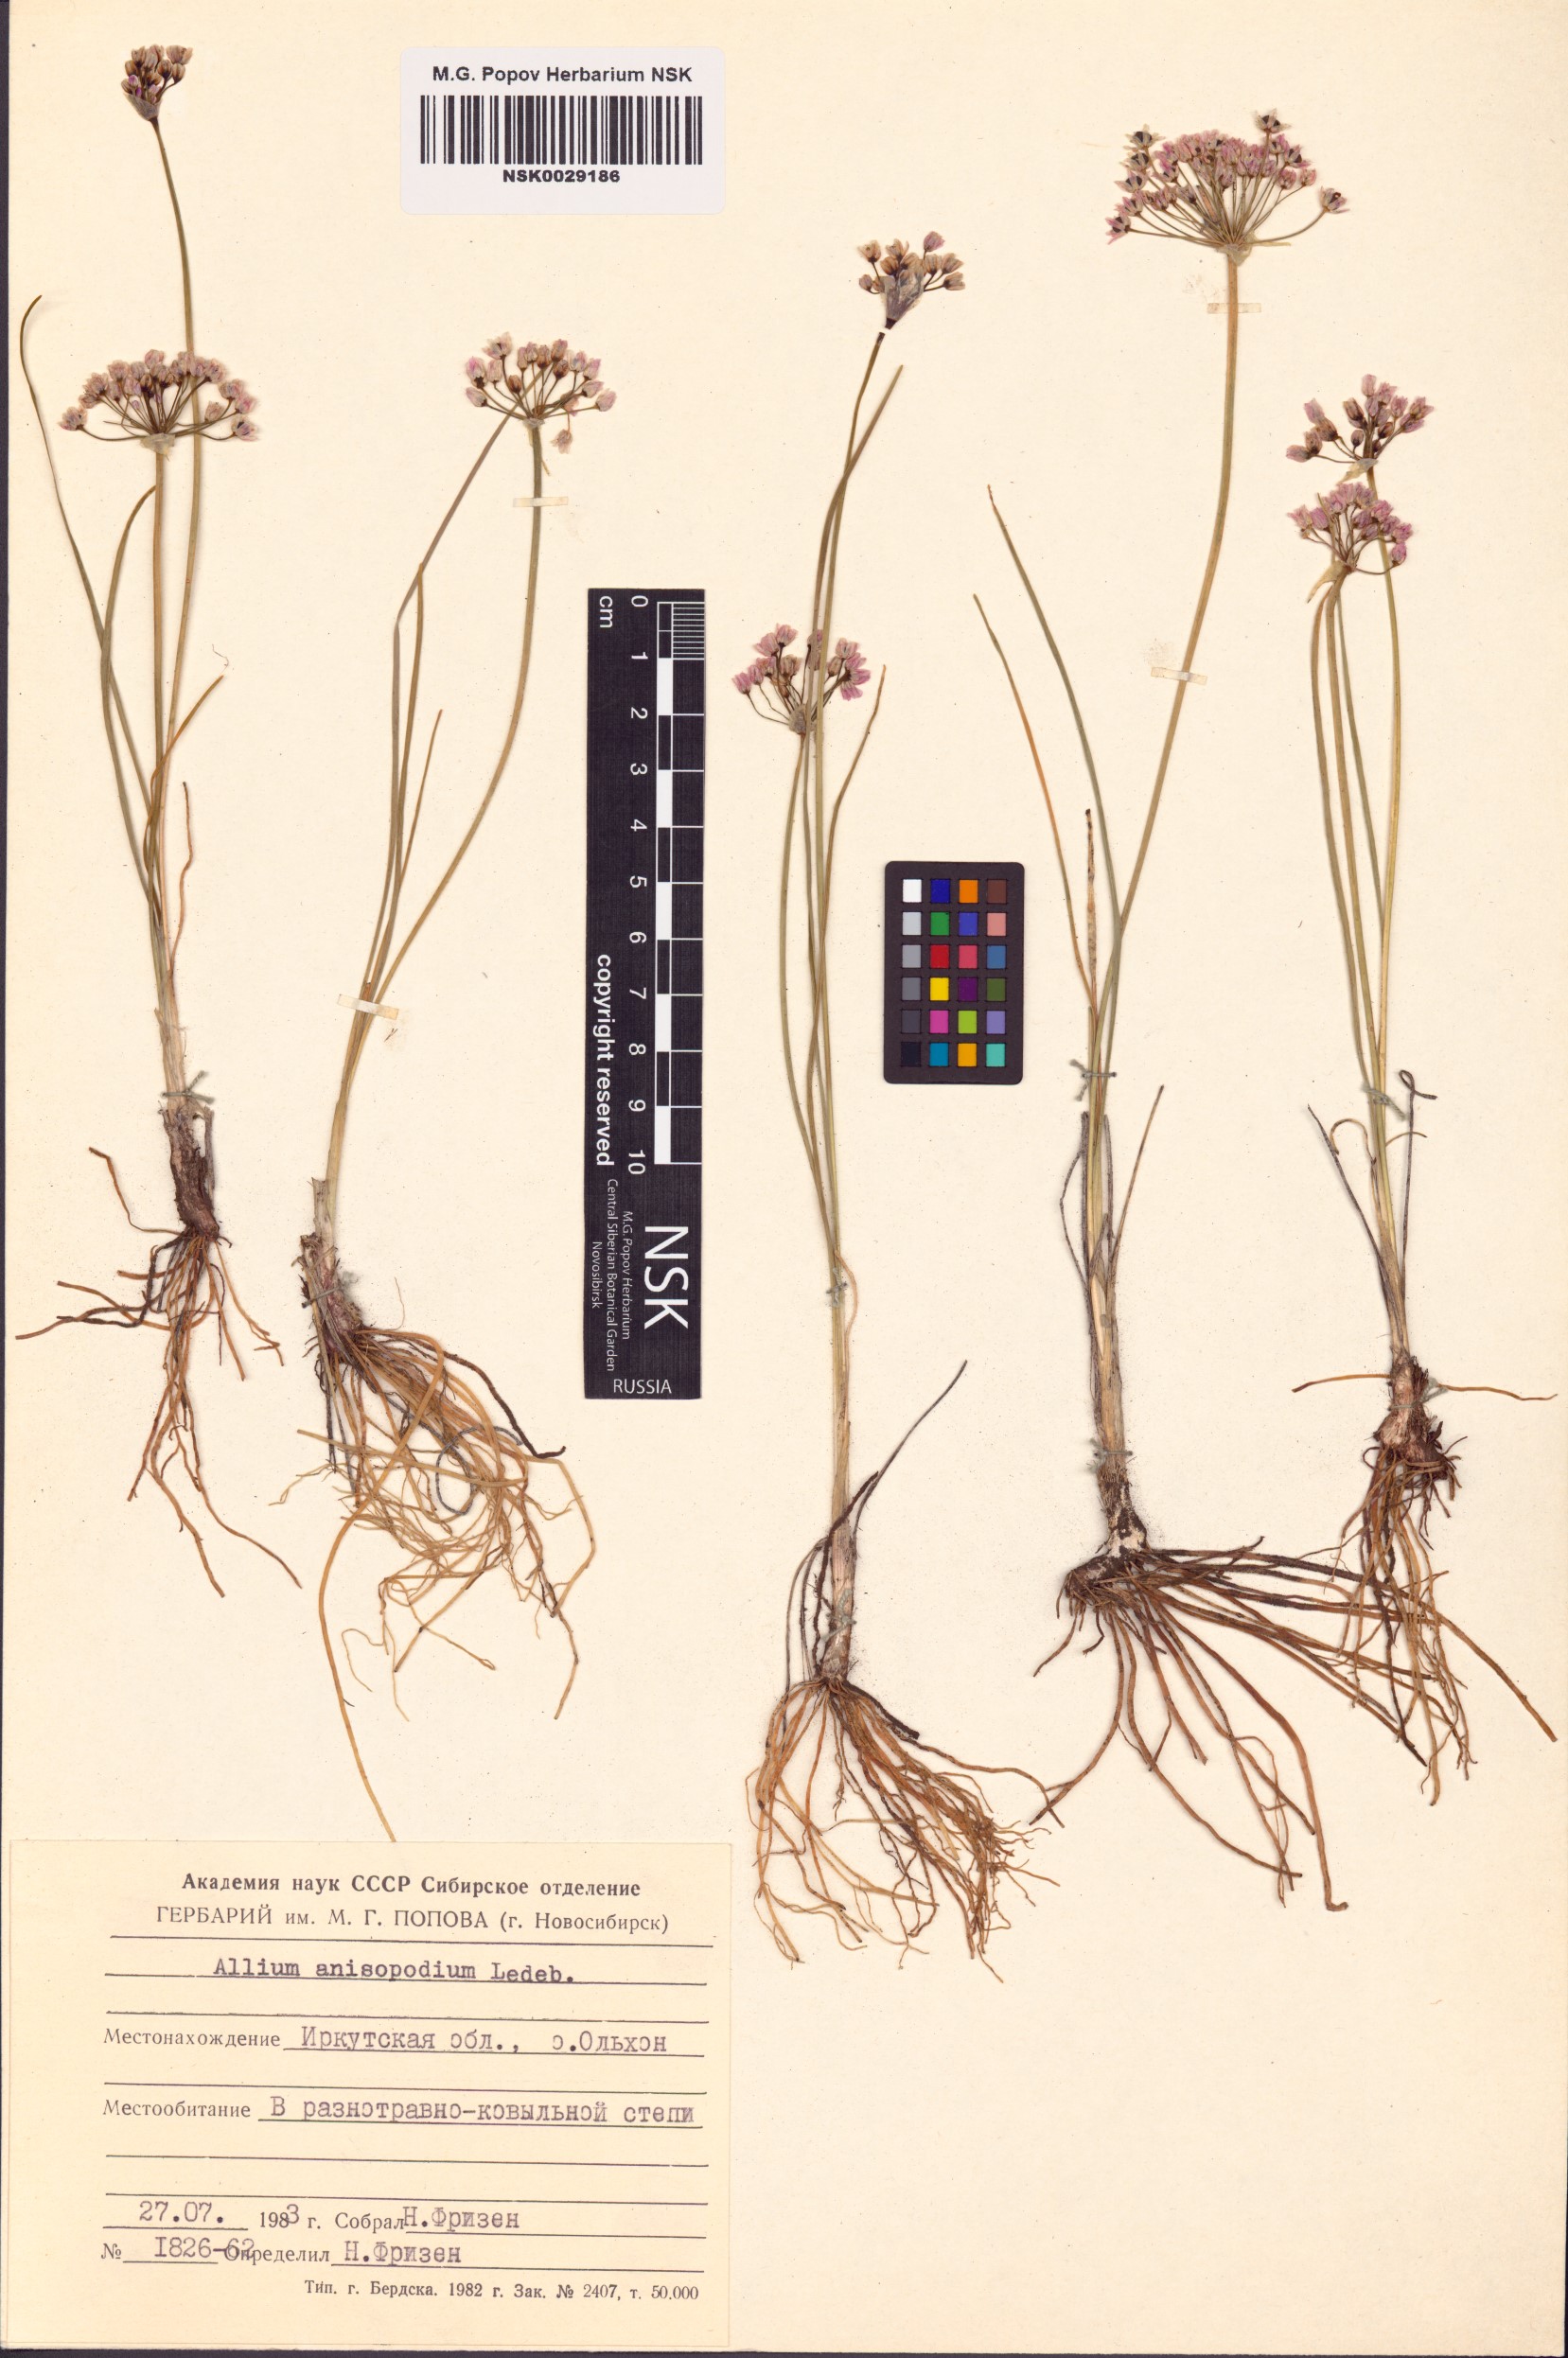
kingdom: Plantae
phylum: Tracheophyta
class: Liliopsida
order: Asparagales
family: Amaryllidaceae
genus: Allium
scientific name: Allium anisopodium
